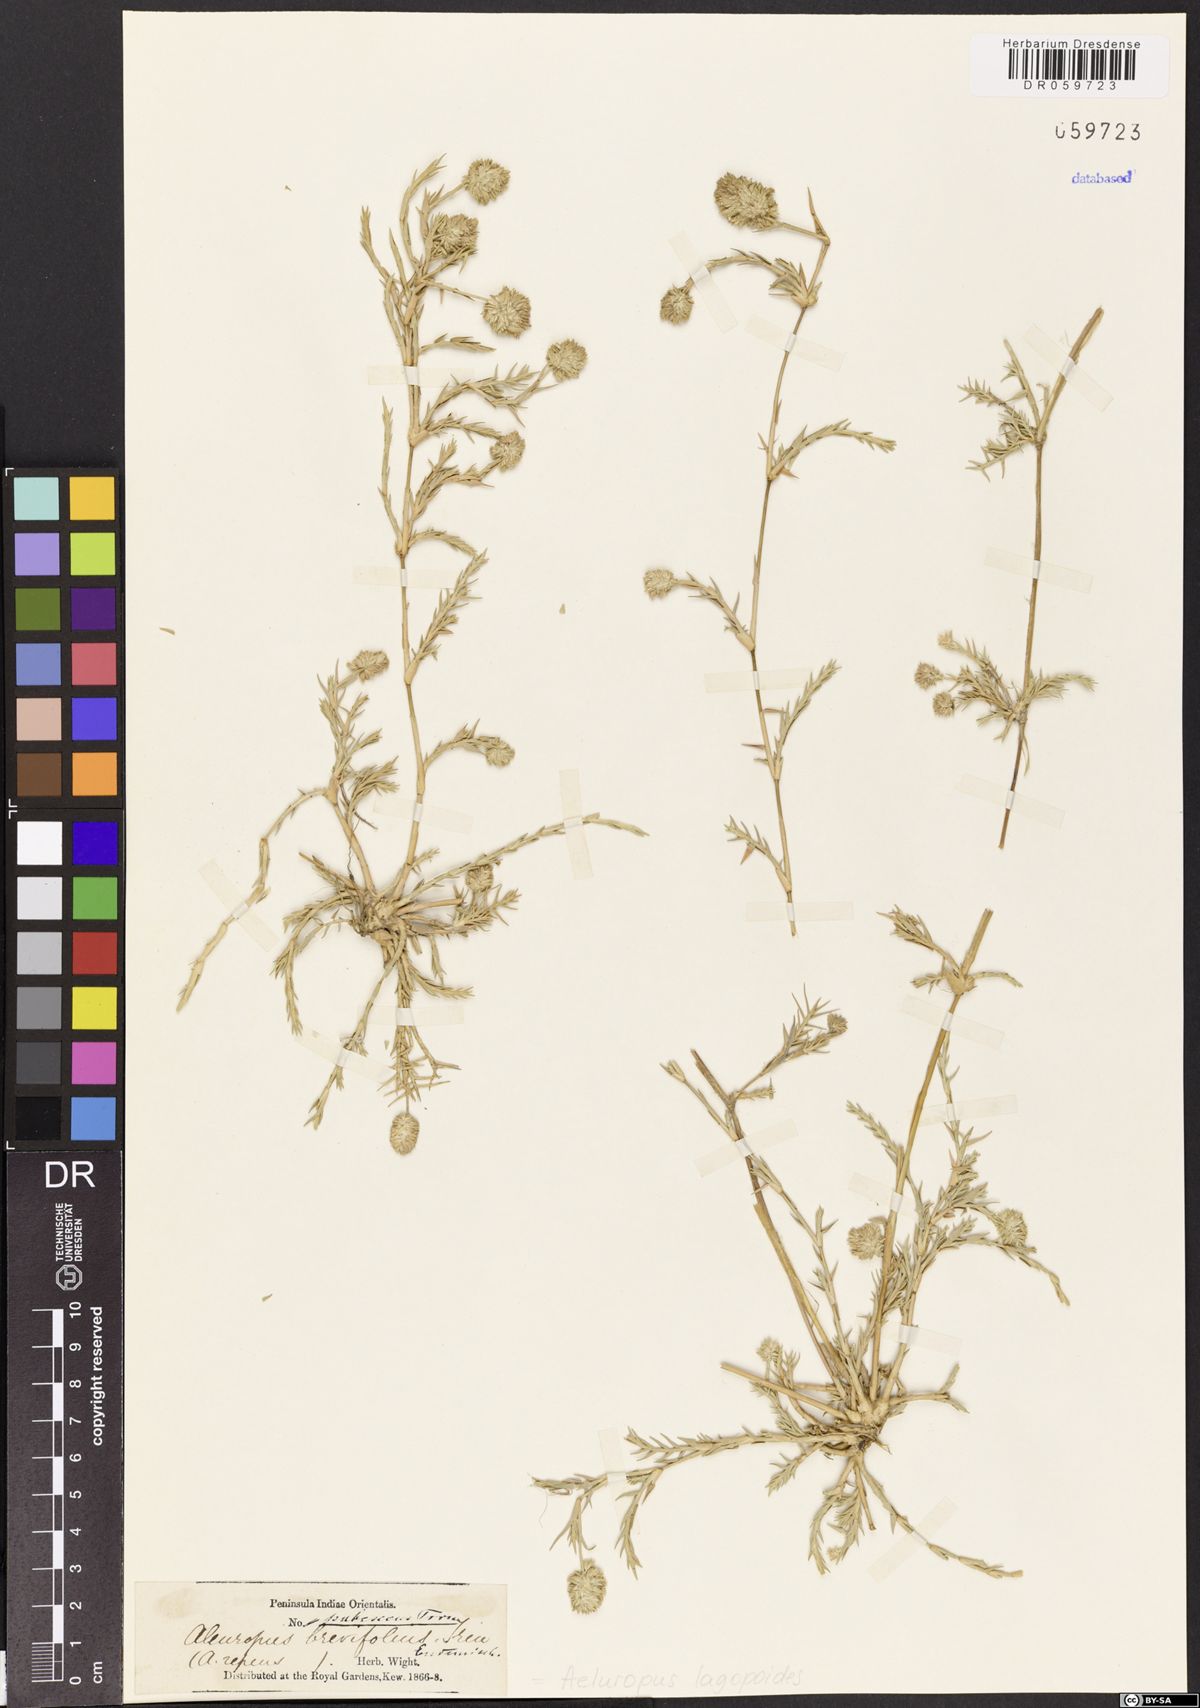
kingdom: Plantae
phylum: Tracheophyta
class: Liliopsida
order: Poales
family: Poaceae
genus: Aeluropus
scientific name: Aeluropus lagopoides
